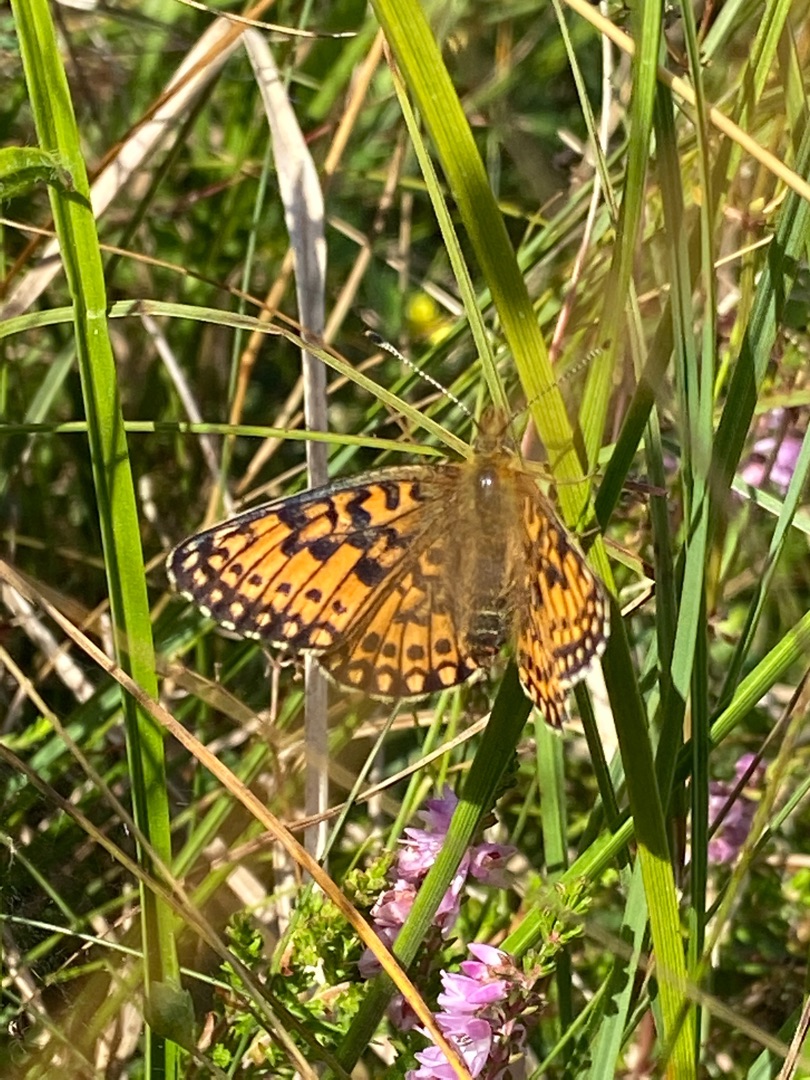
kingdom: Animalia
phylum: Arthropoda
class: Insecta
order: Lepidoptera
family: Nymphalidae
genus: Boloria
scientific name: Boloria selene
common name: Brunlig perlemorsommerfugl
